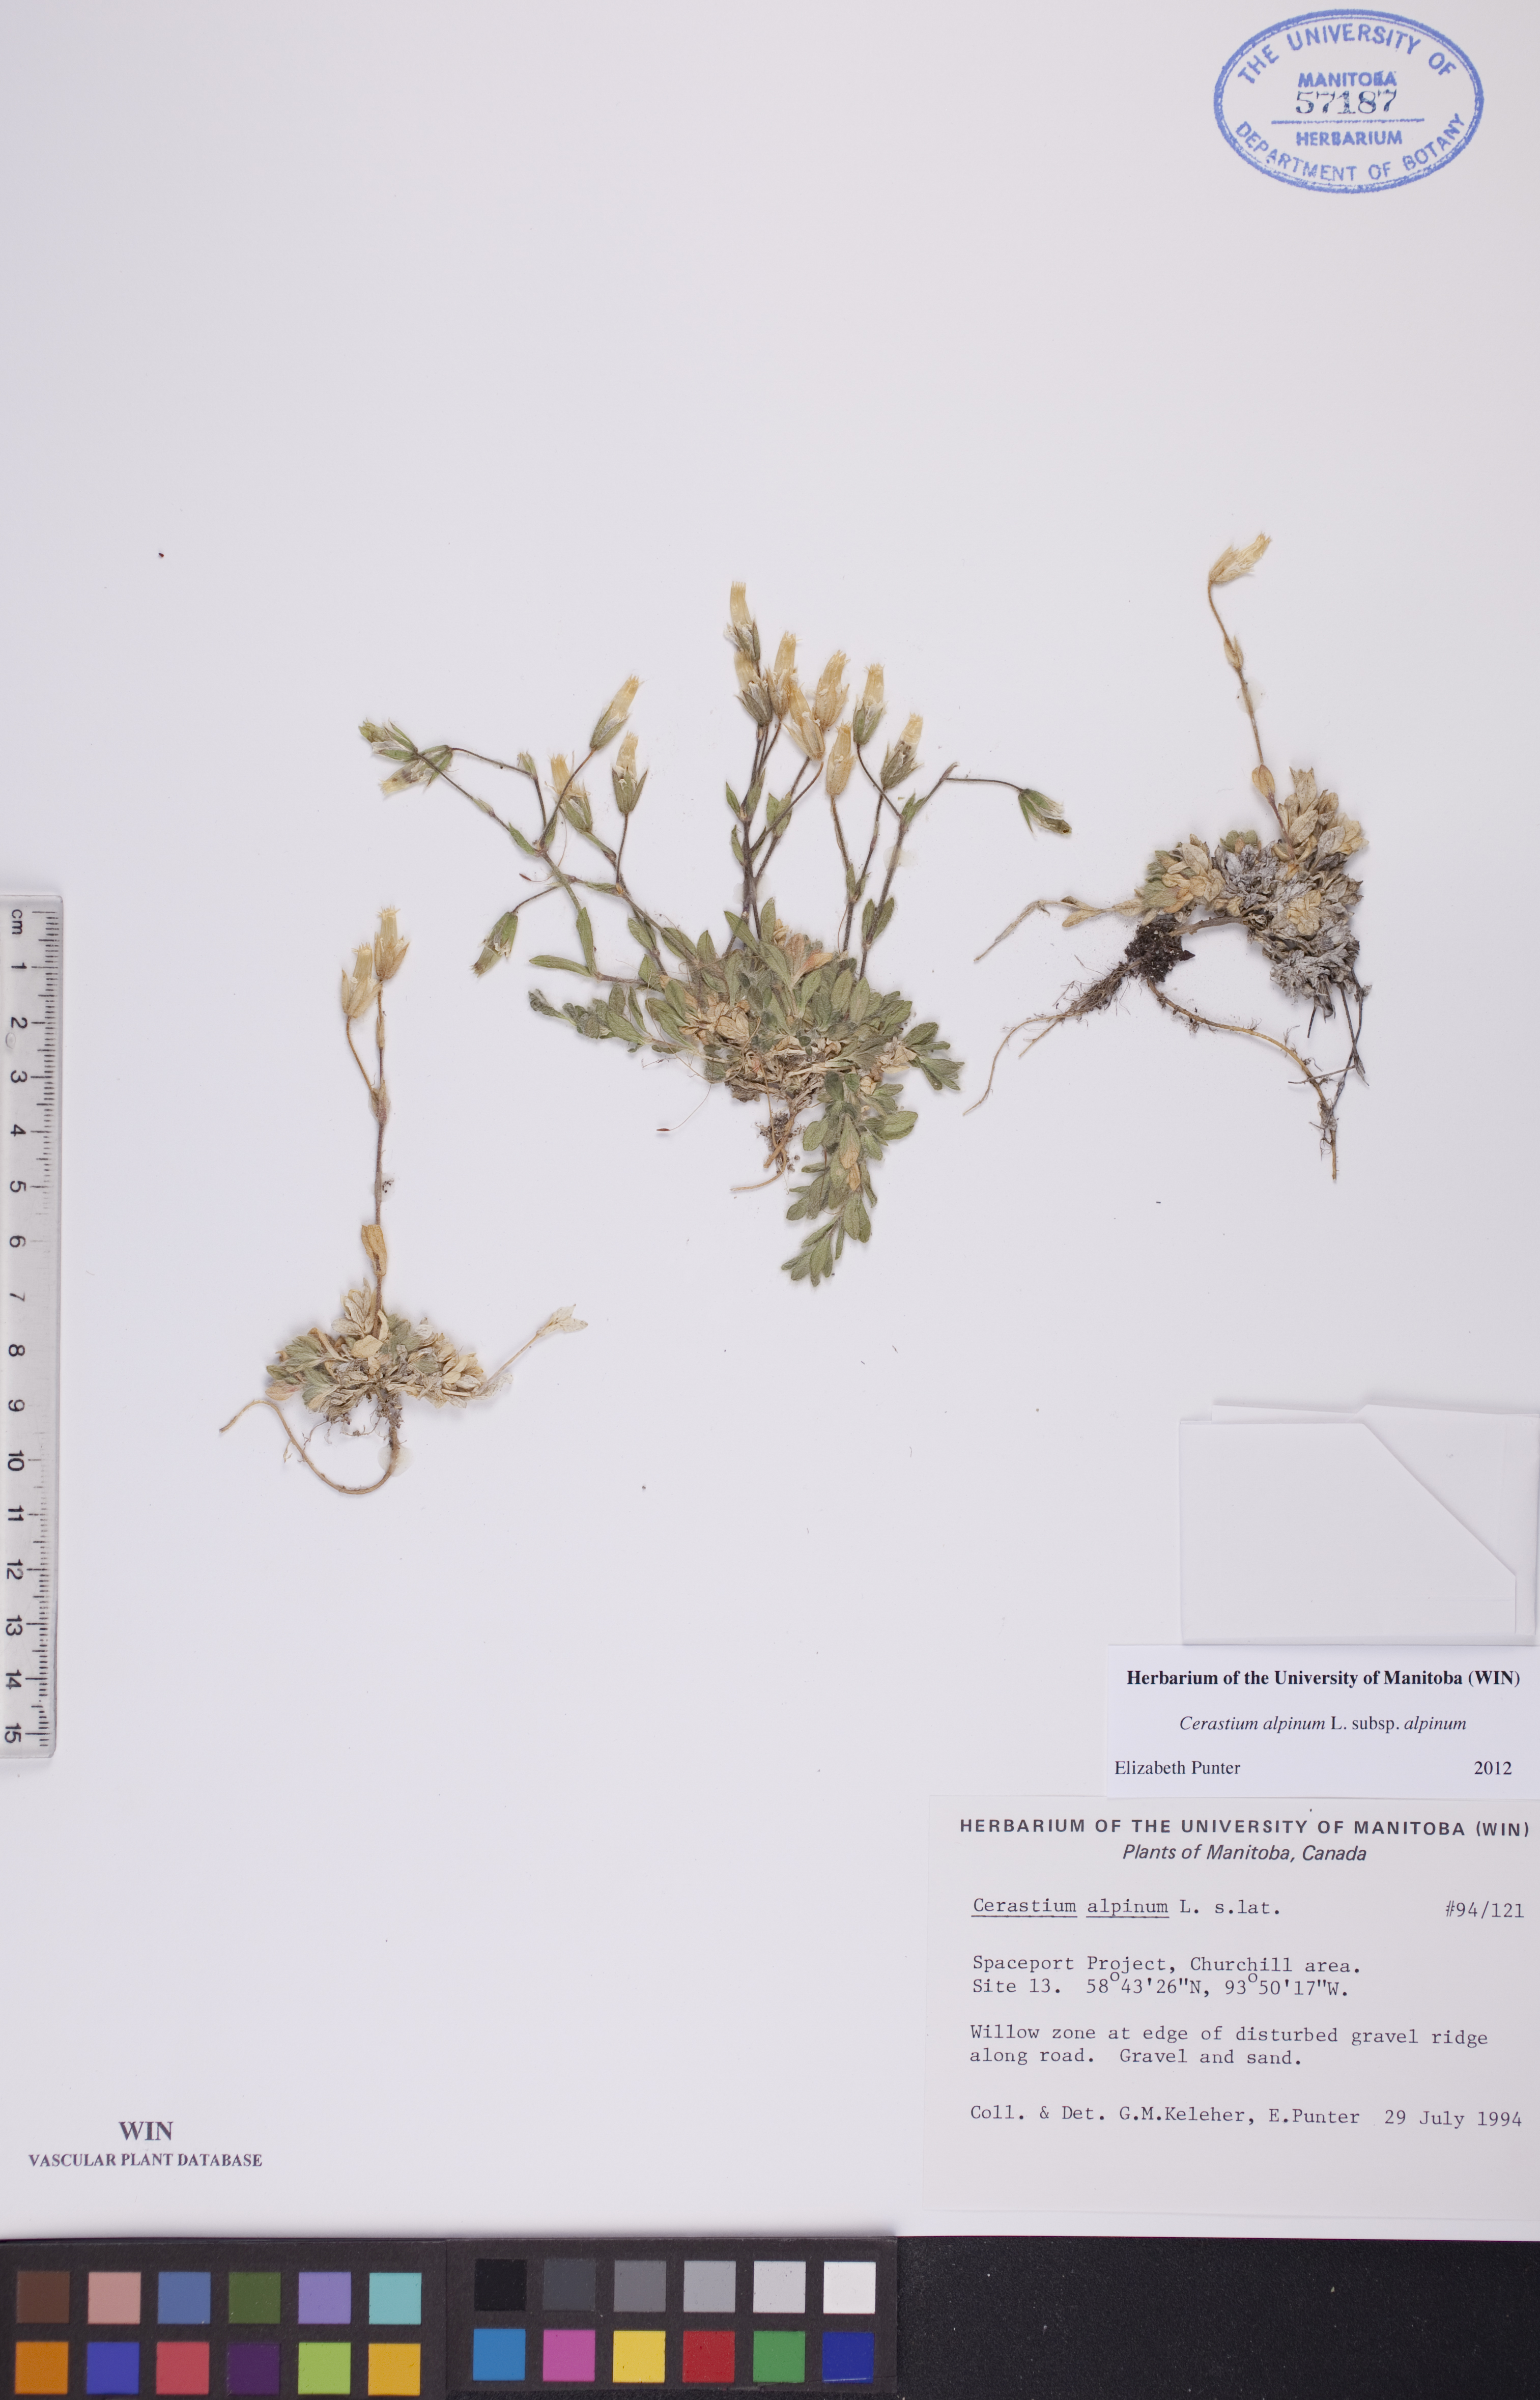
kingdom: Plantae
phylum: Tracheophyta
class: Magnoliopsida
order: Caryophyllales
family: Caryophyllaceae
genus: Cerastium
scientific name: Cerastium alpinum
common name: Alpine mouse-ear
